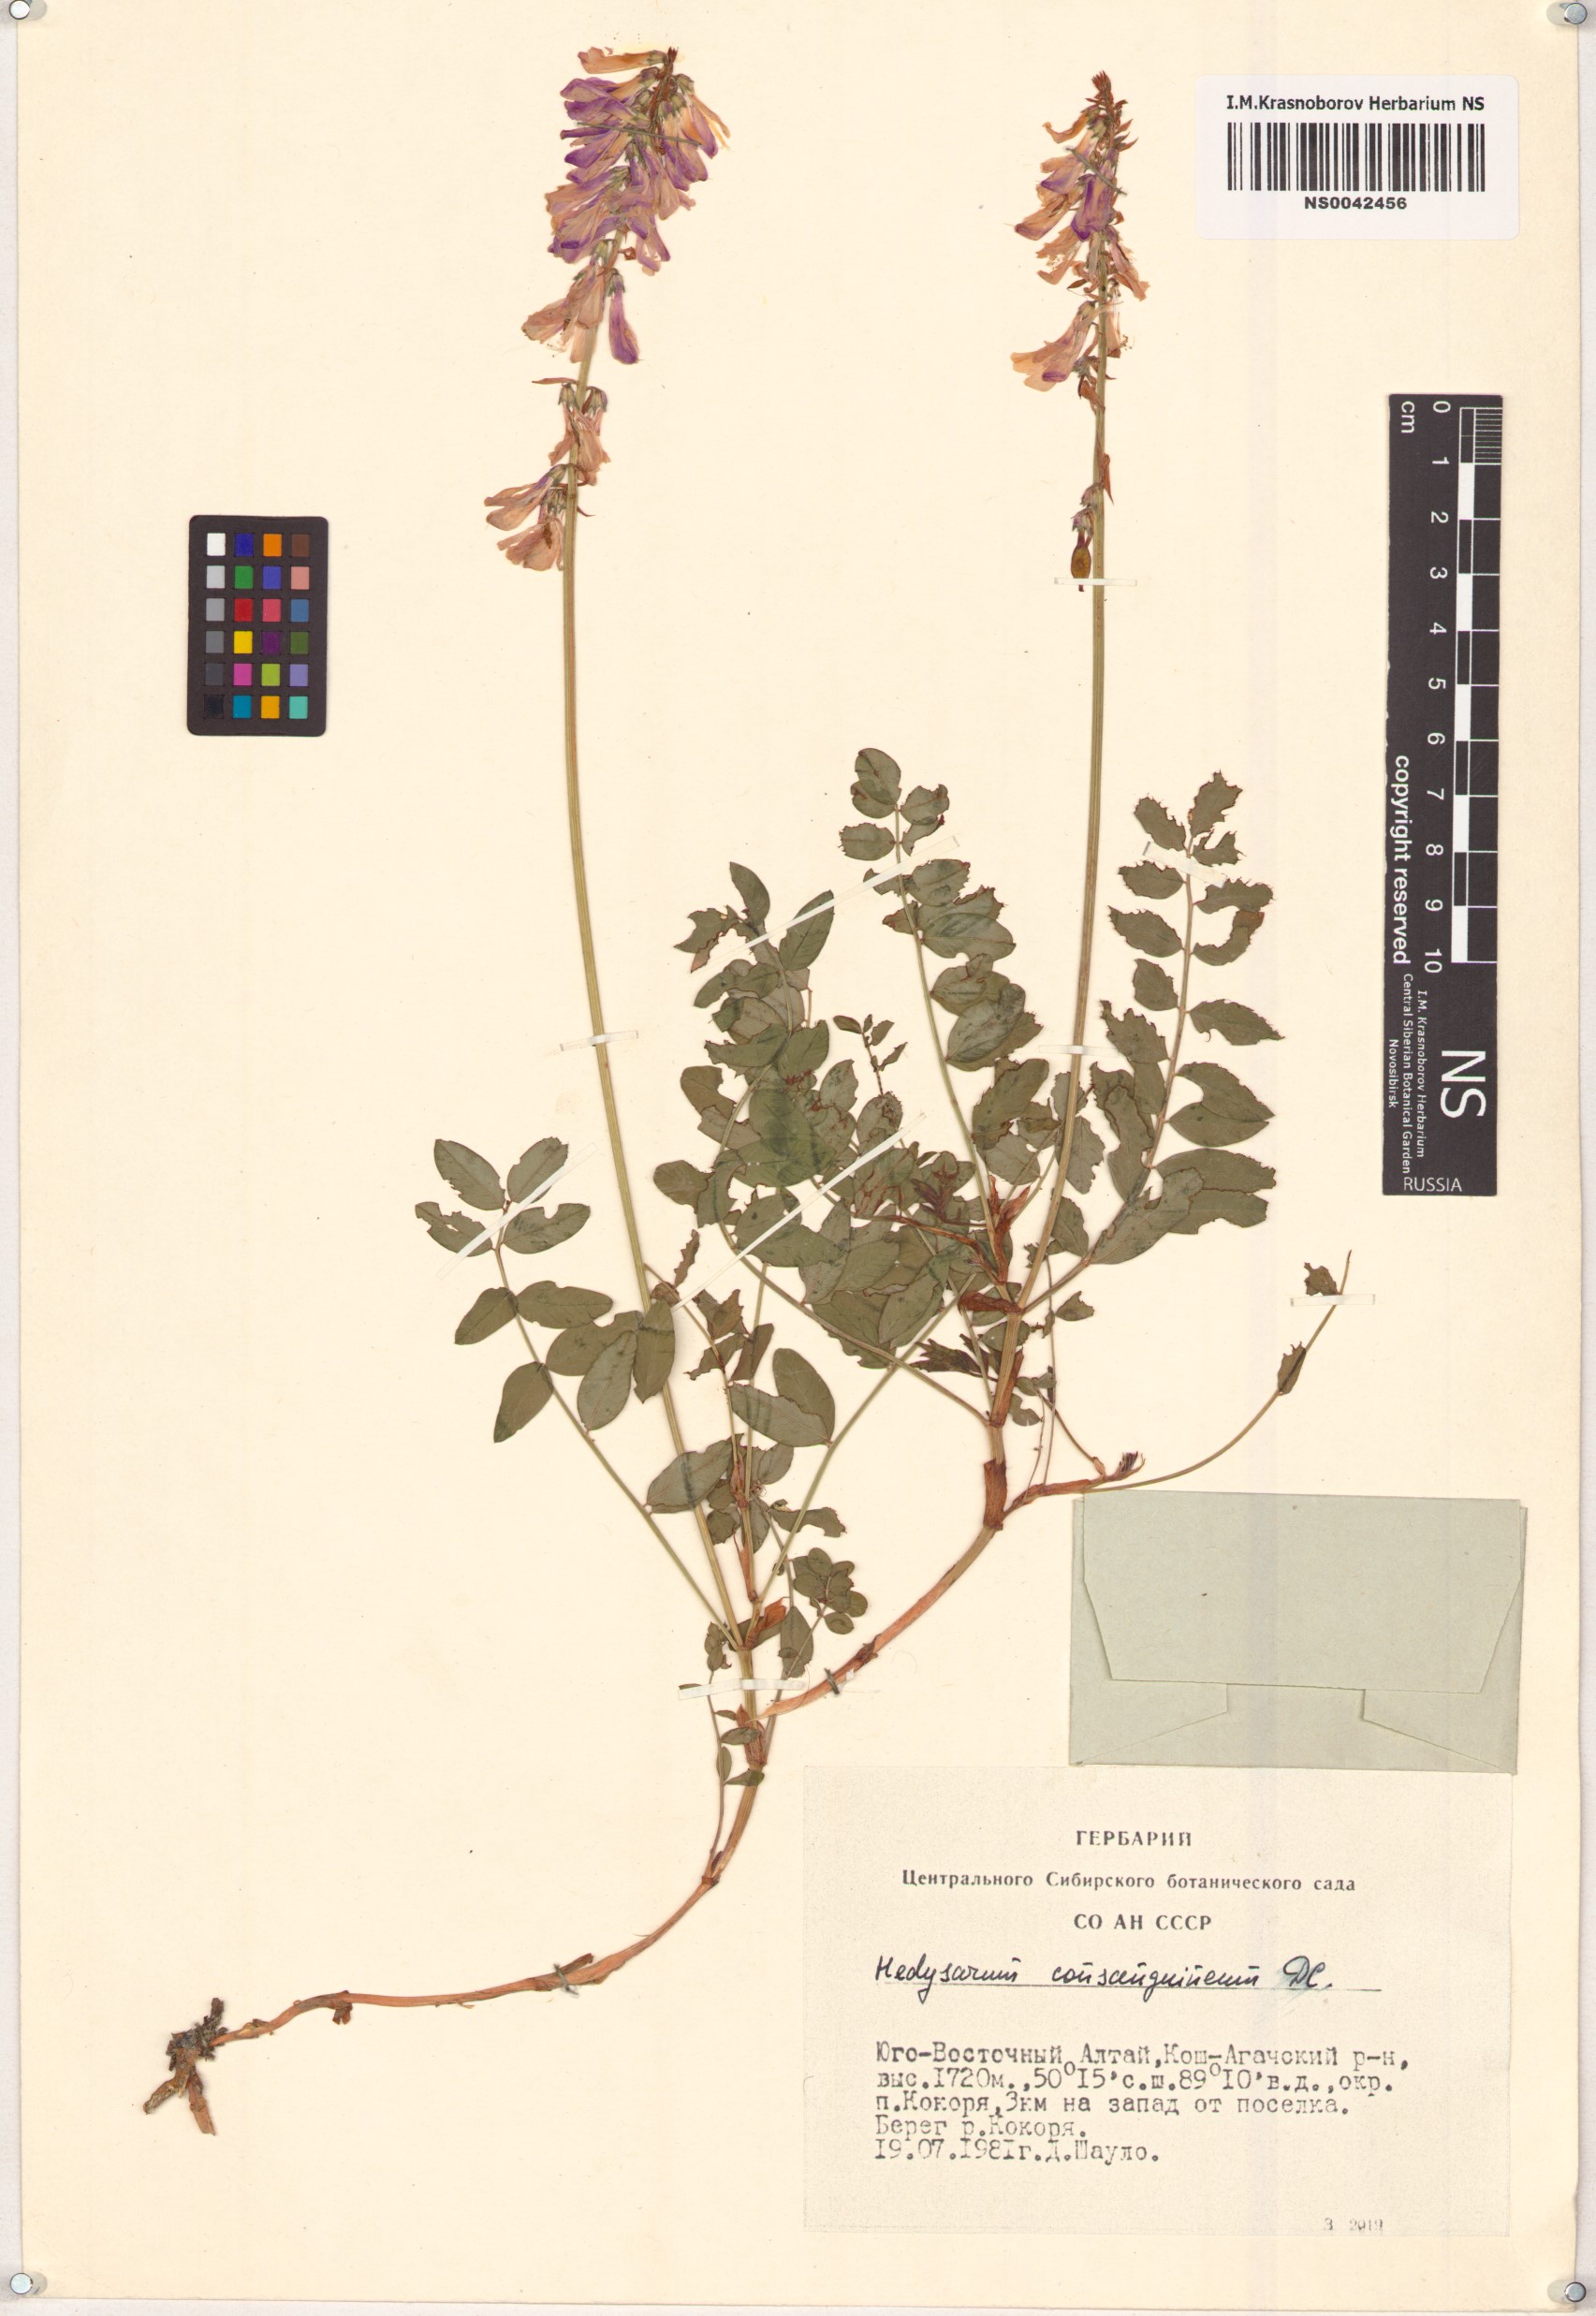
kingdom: Plantae
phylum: Tracheophyta
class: Magnoliopsida
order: Fabales
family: Fabaceae
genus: Hedysarum
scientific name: Hedysarum consanguineum
